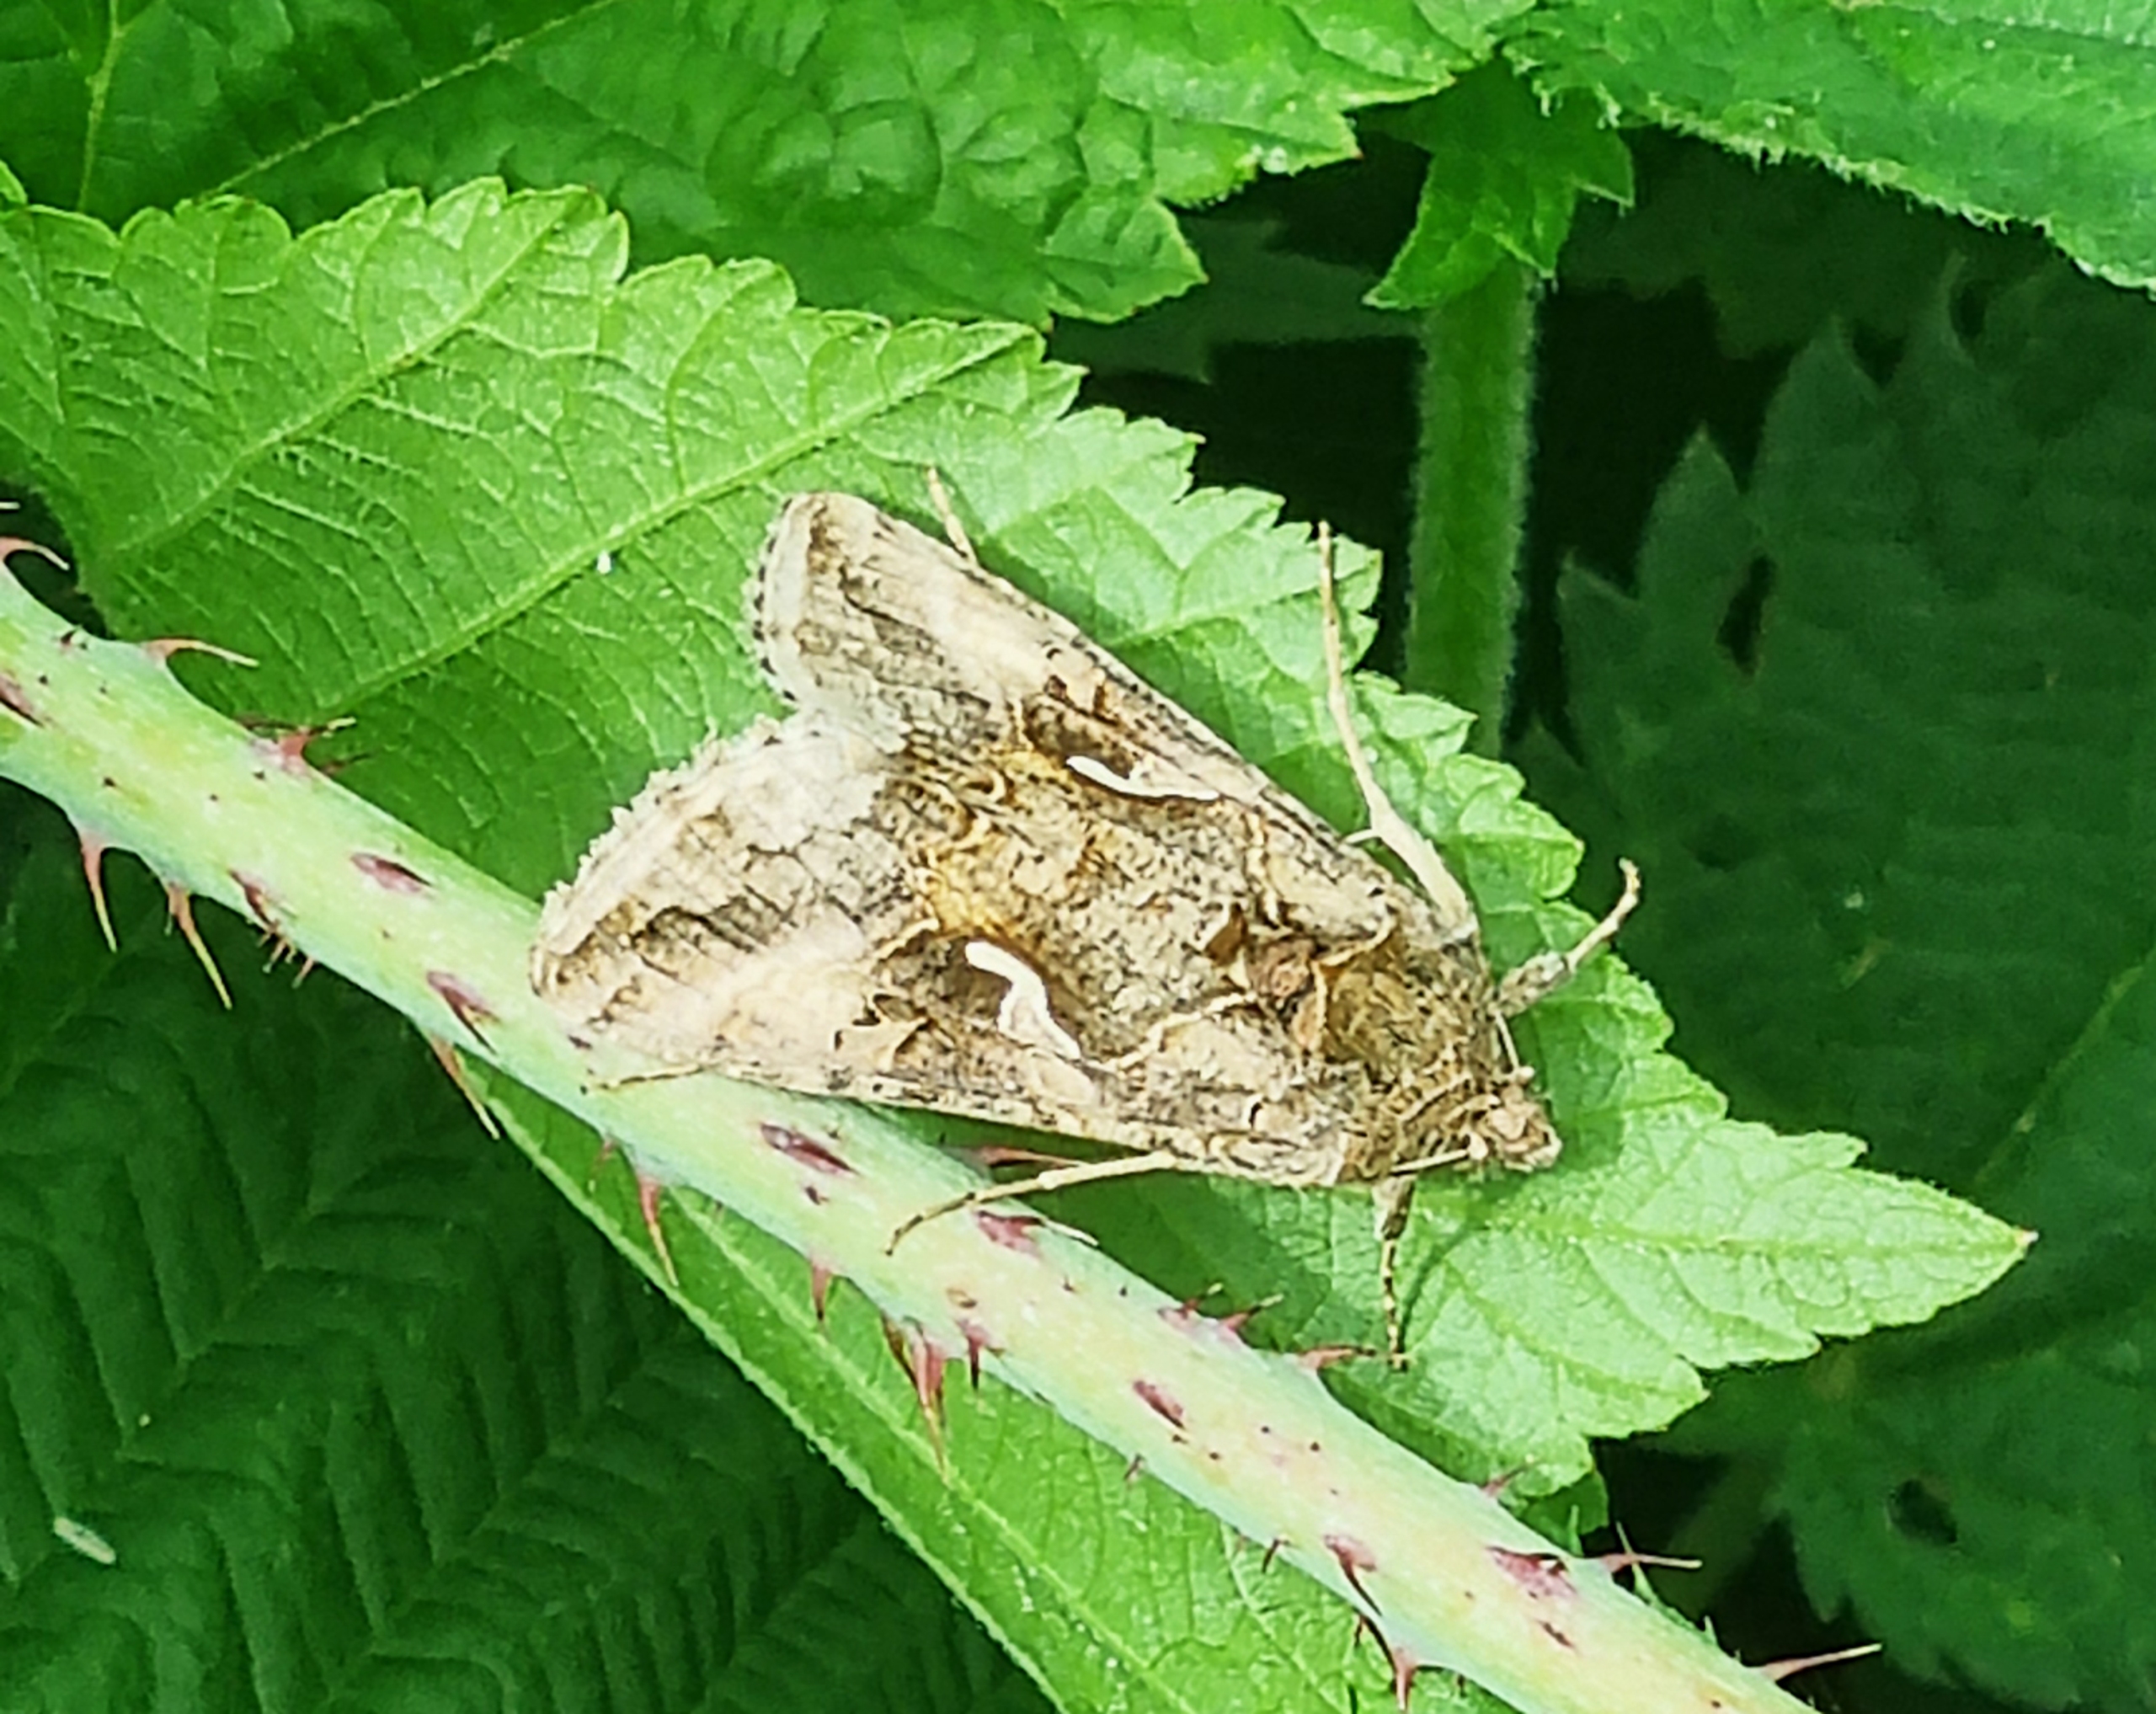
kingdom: Animalia
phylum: Arthropoda
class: Insecta
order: Lepidoptera
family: Noctuidae
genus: Autographa
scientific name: Autographa gamma
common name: Gammaugle
